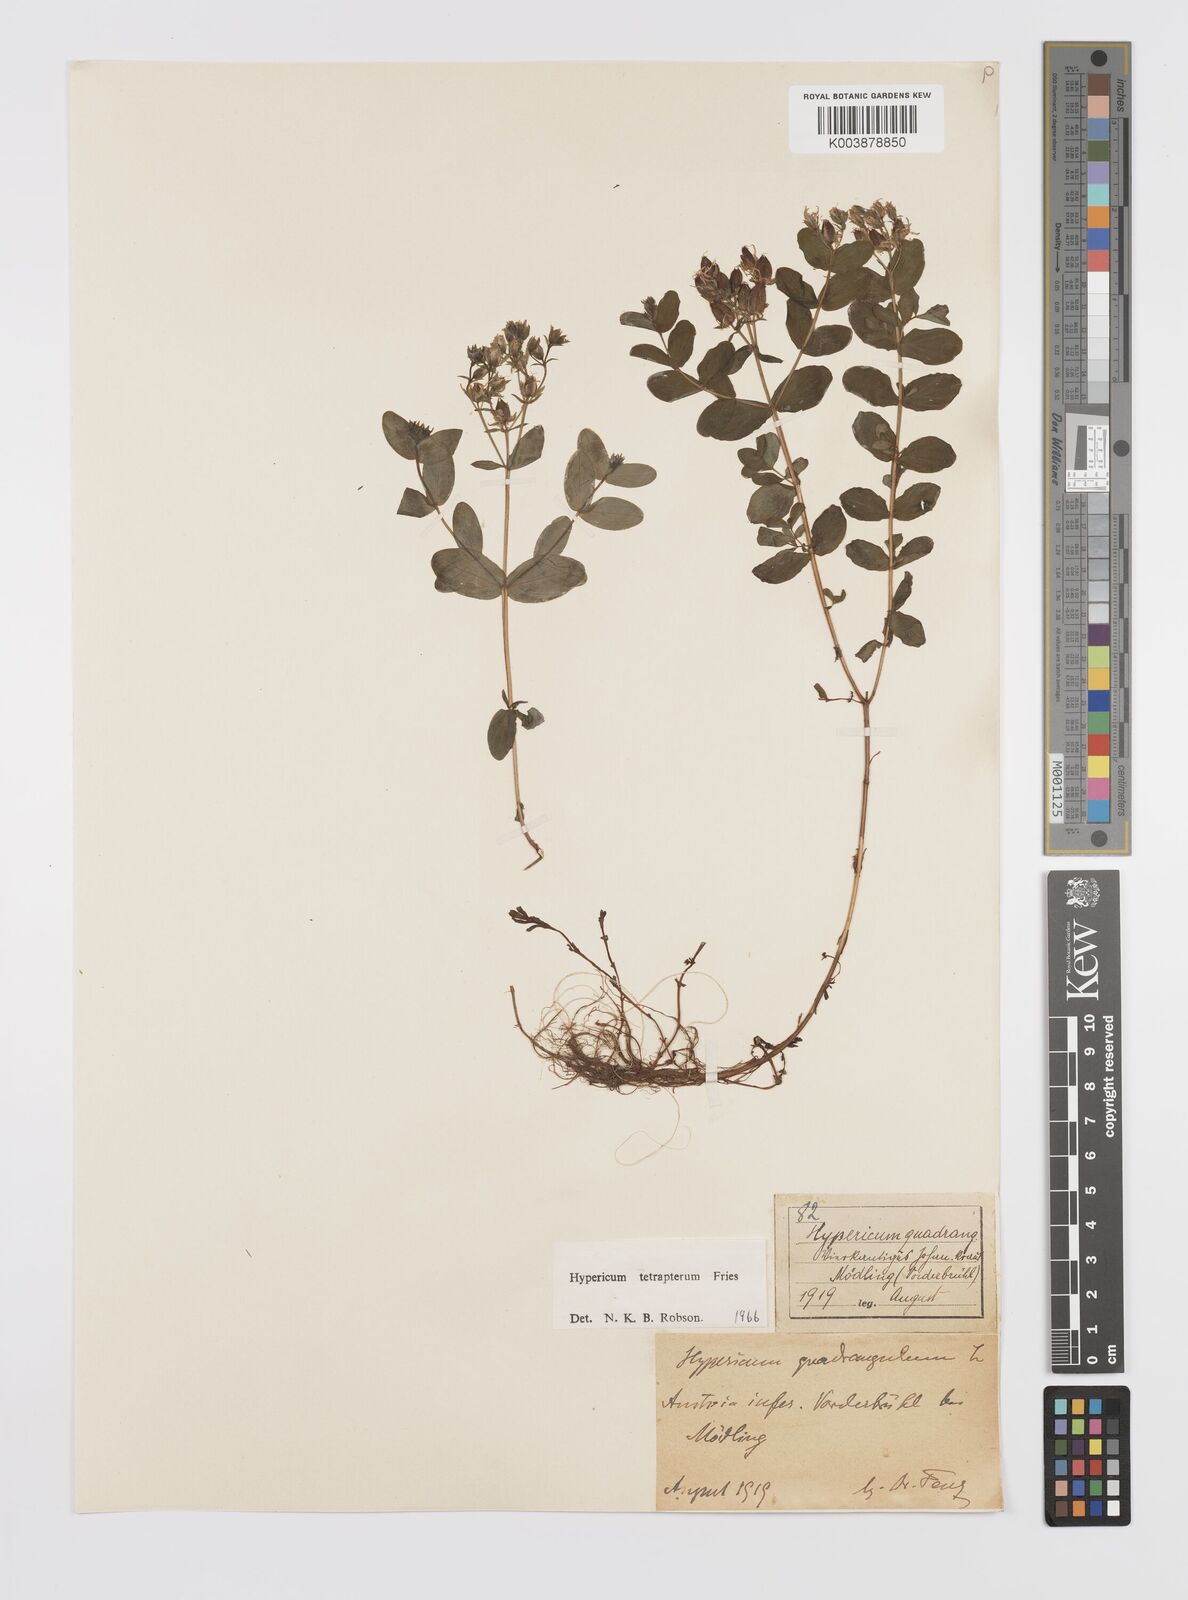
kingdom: Plantae
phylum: Tracheophyta
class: Magnoliopsida
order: Malpighiales
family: Hypericaceae
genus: Hypericum
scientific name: Hypericum tetrapterum
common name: Square-stalked st. john's-wort
